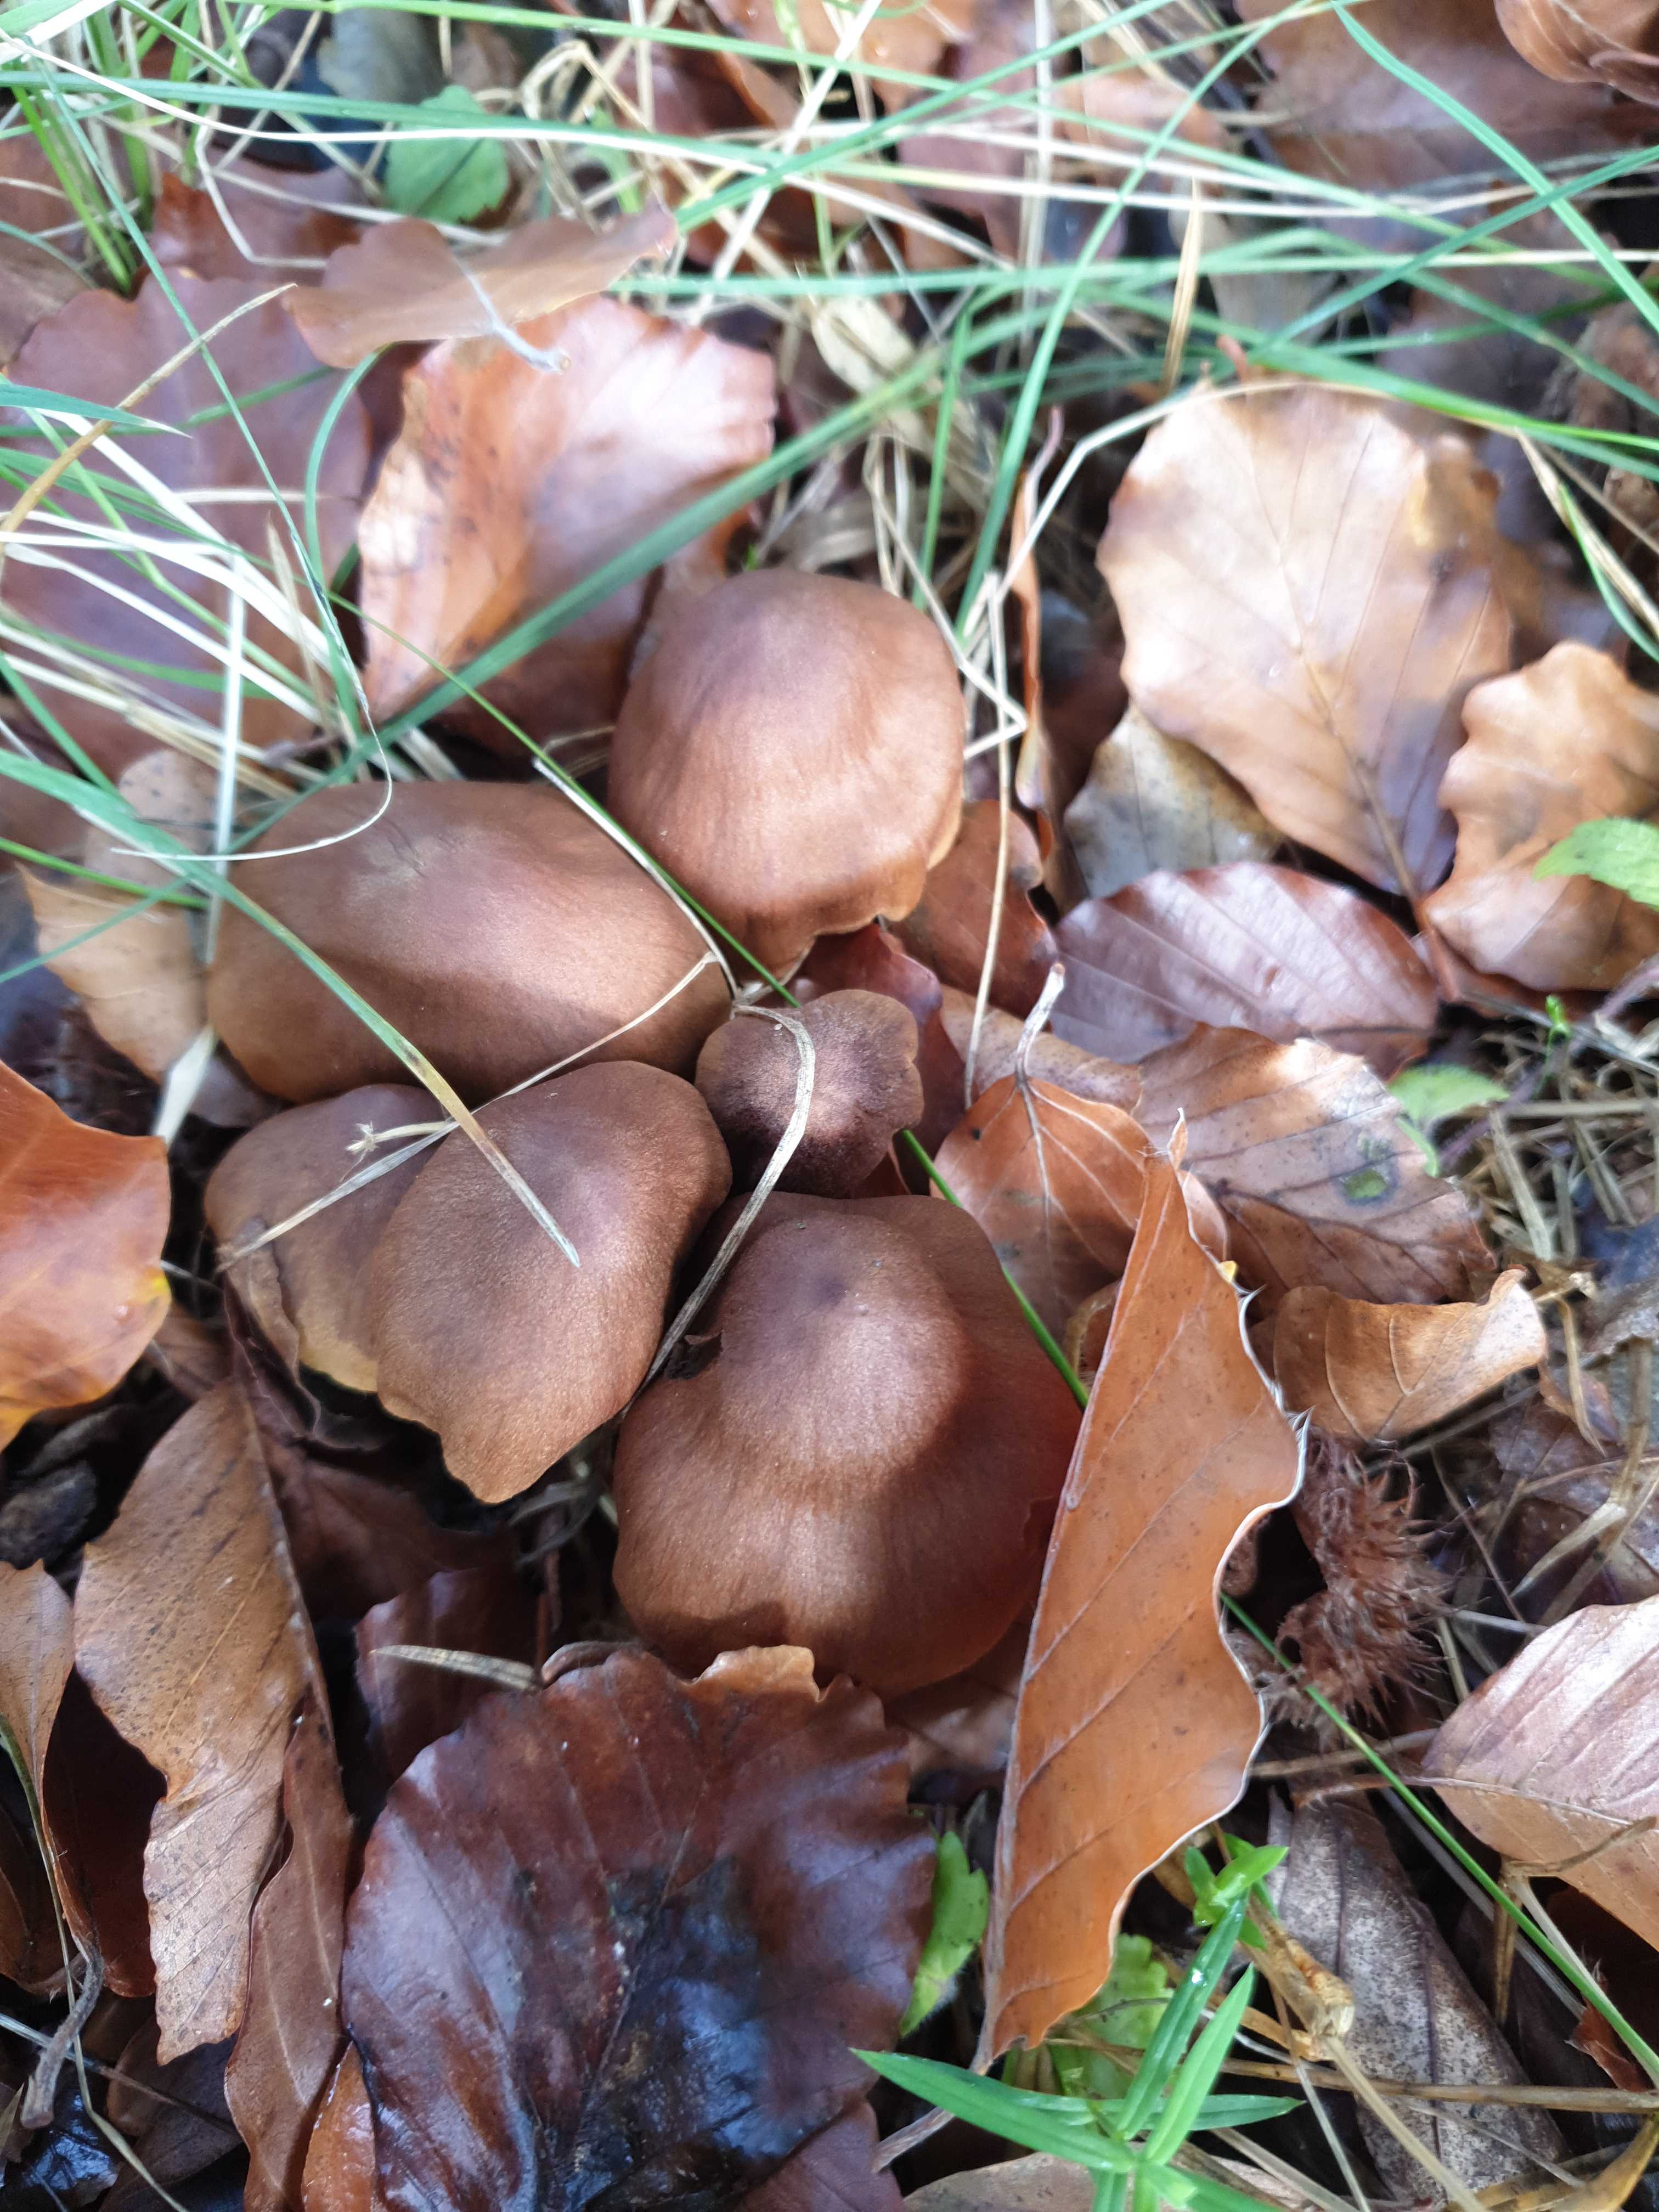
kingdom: Fungi
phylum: Basidiomycota
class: Agaricomycetes
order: Agaricales
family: Cortinariaceae
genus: Cortinarius
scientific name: Cortinarius
